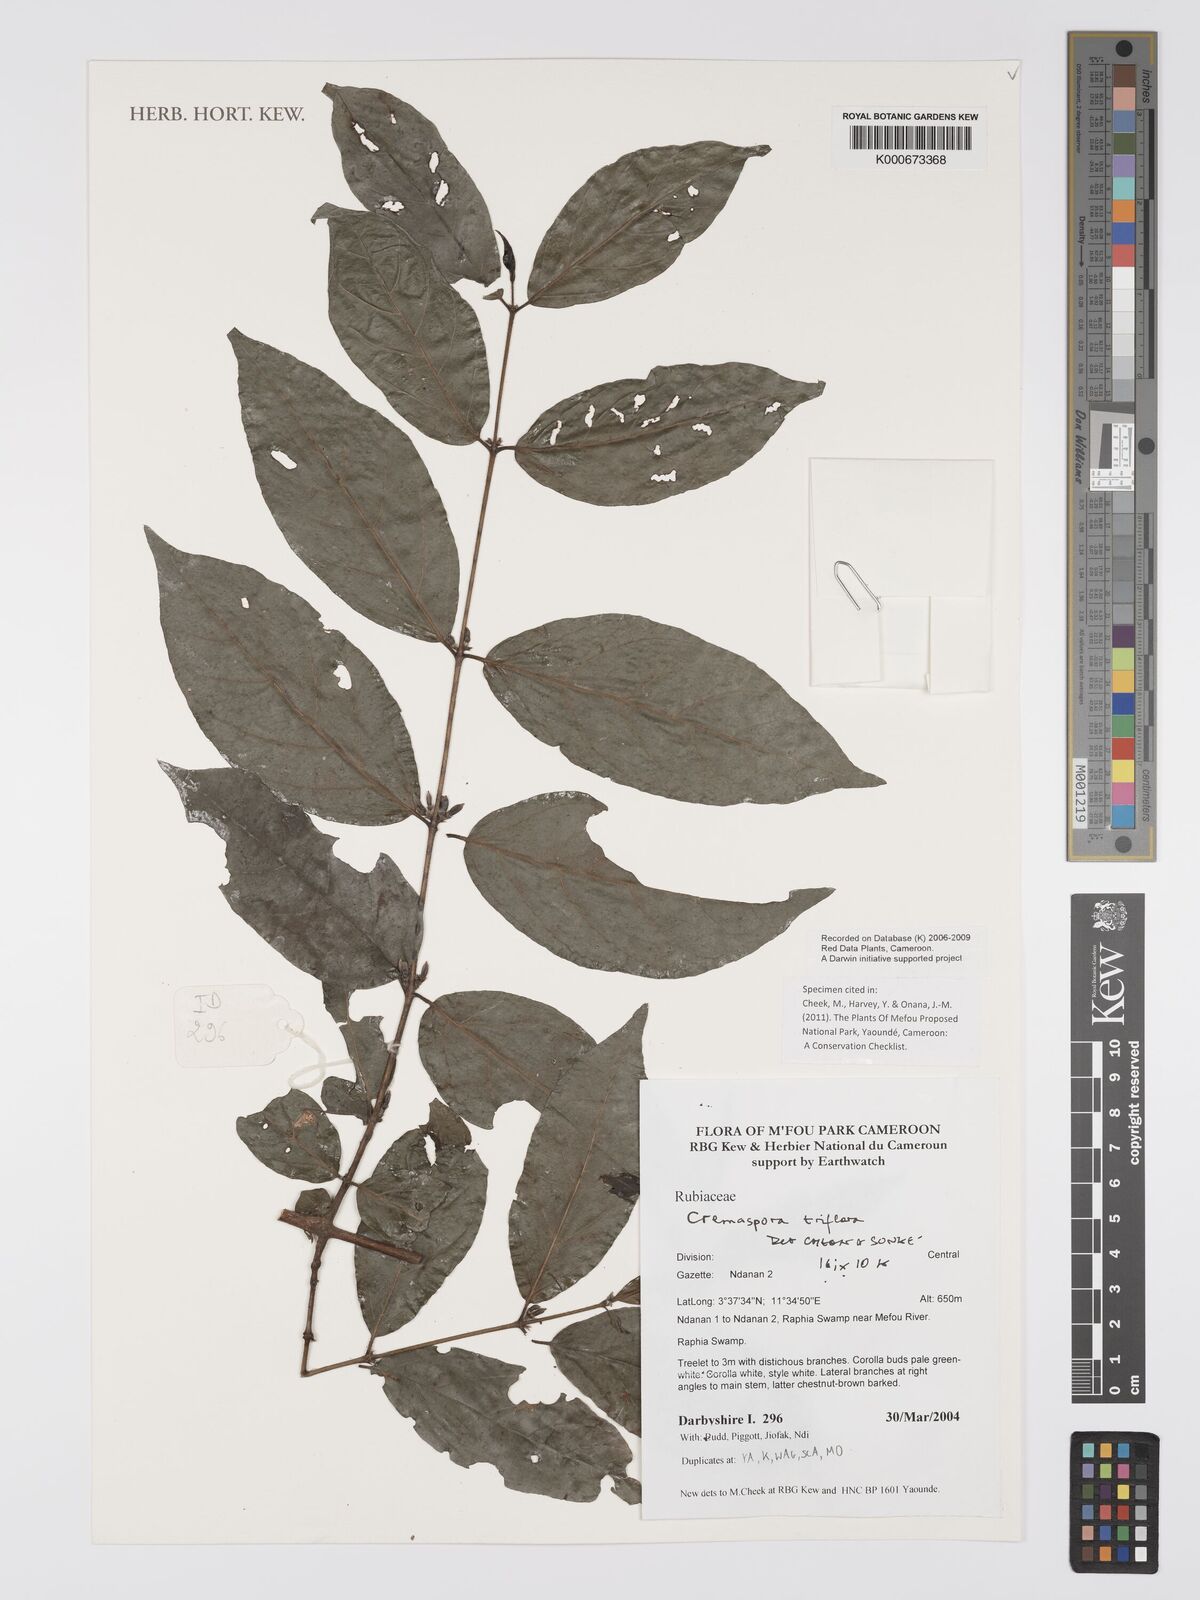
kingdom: Plantae
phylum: Tracheophyta
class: Magnoliopsida
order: Gentianales
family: Rubiaceae
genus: Cremaspora
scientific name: Cremaspora triflora
